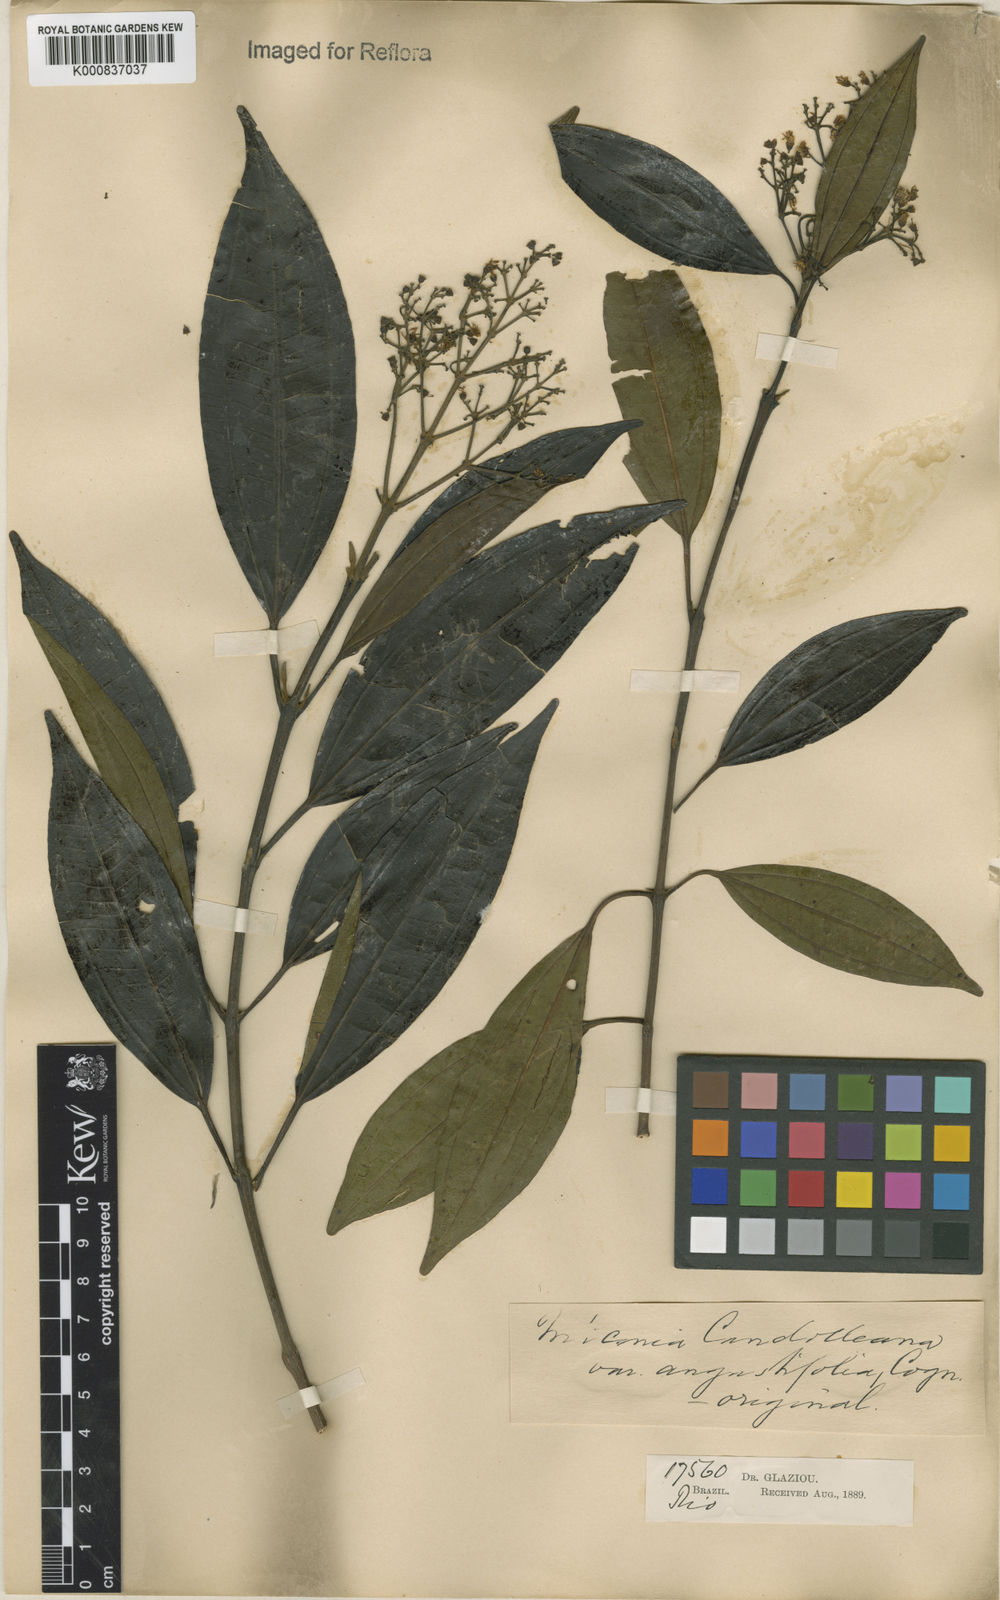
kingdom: Plantae
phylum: Tracheophyta
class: Magnoliopsida
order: Myrtales
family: Melastomataceae
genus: Miconia
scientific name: Miconia cinnamomifolia
